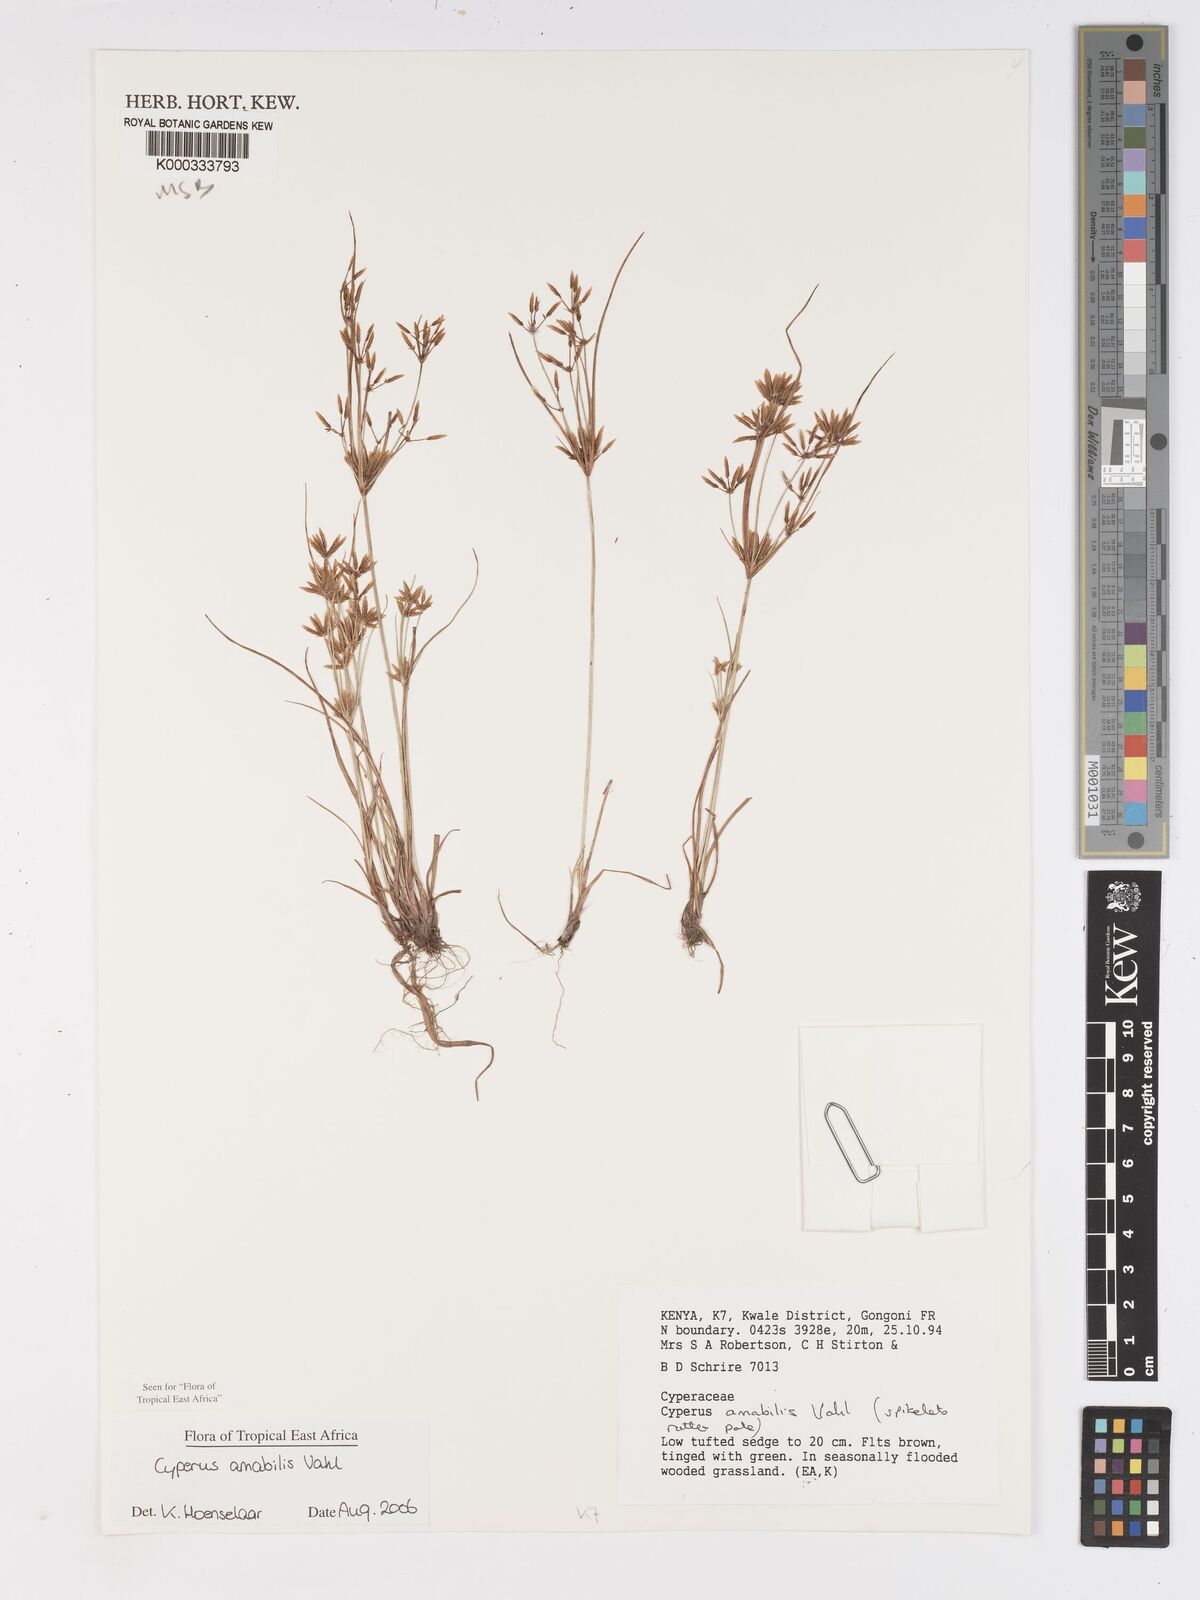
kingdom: Plantae
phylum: Tracheophyta
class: Liliopsida
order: Poales
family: Cyperaceae
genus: Cyperus
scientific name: Cyperus amabilis
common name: Foothill flat sedge
